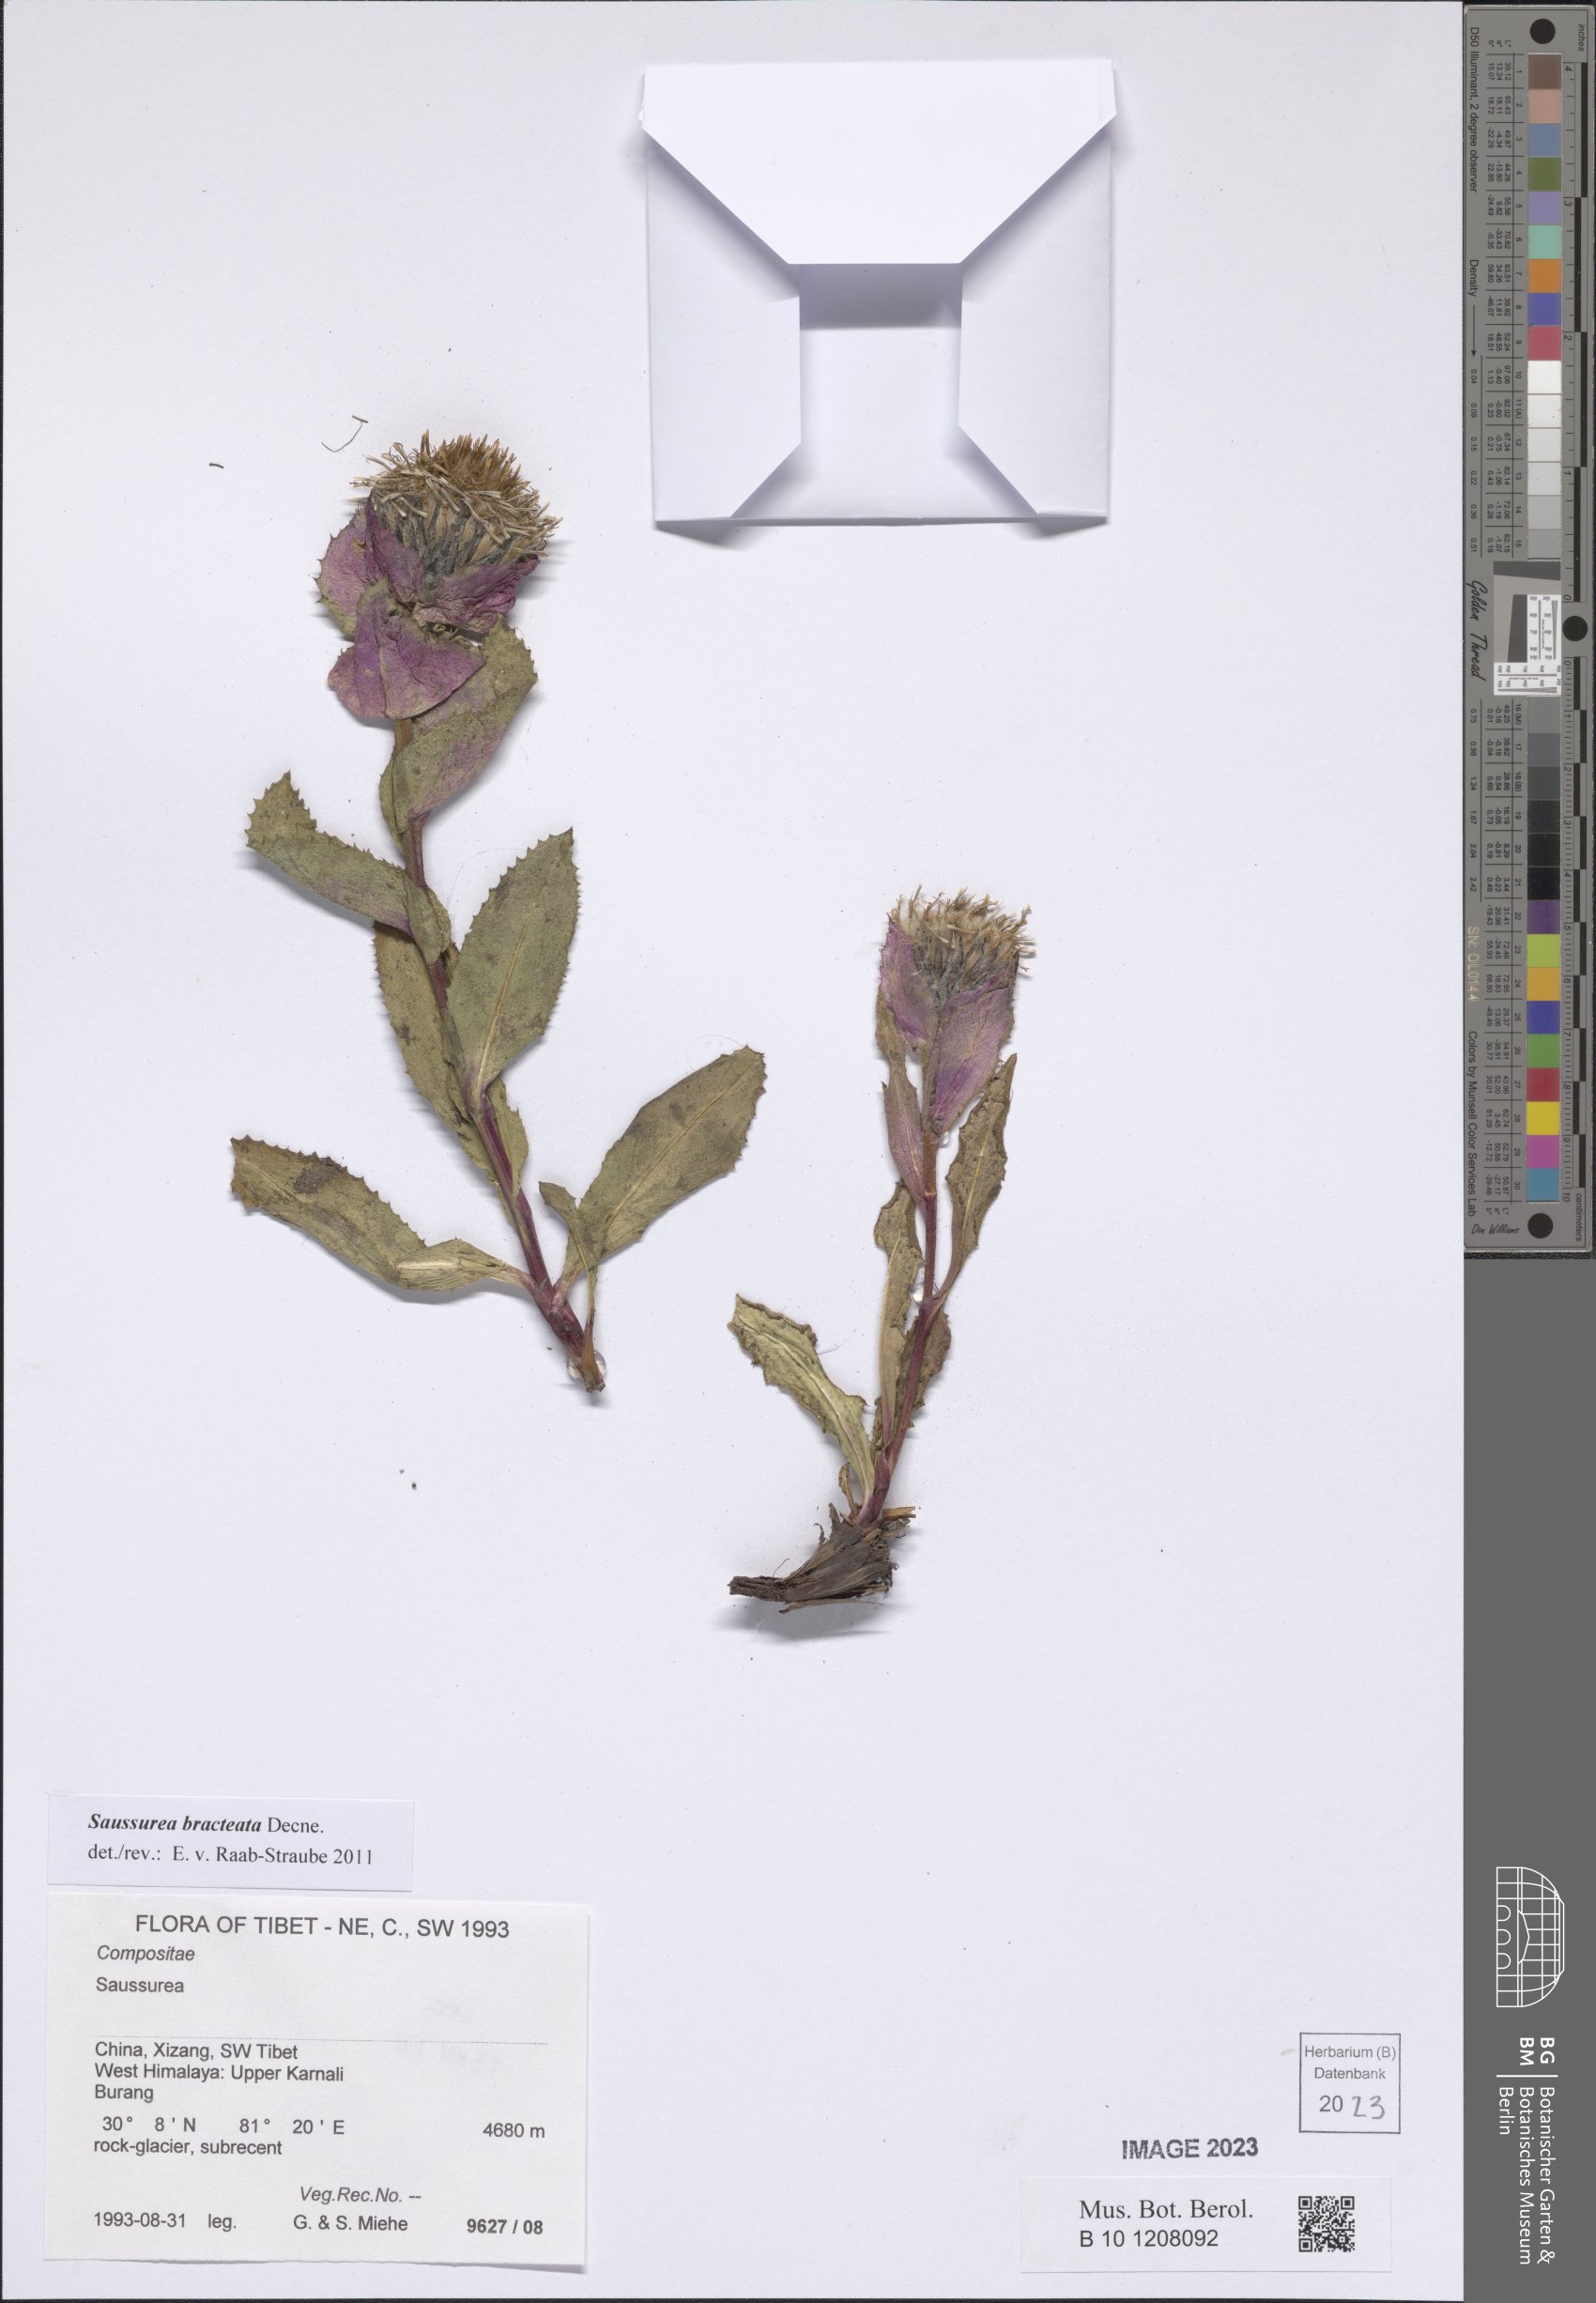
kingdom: Plantae
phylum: Tracheophyta
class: Magnoliopsida
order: Asterales
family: Asteraceae
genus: Saussurea
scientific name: Saussurea bracteata
